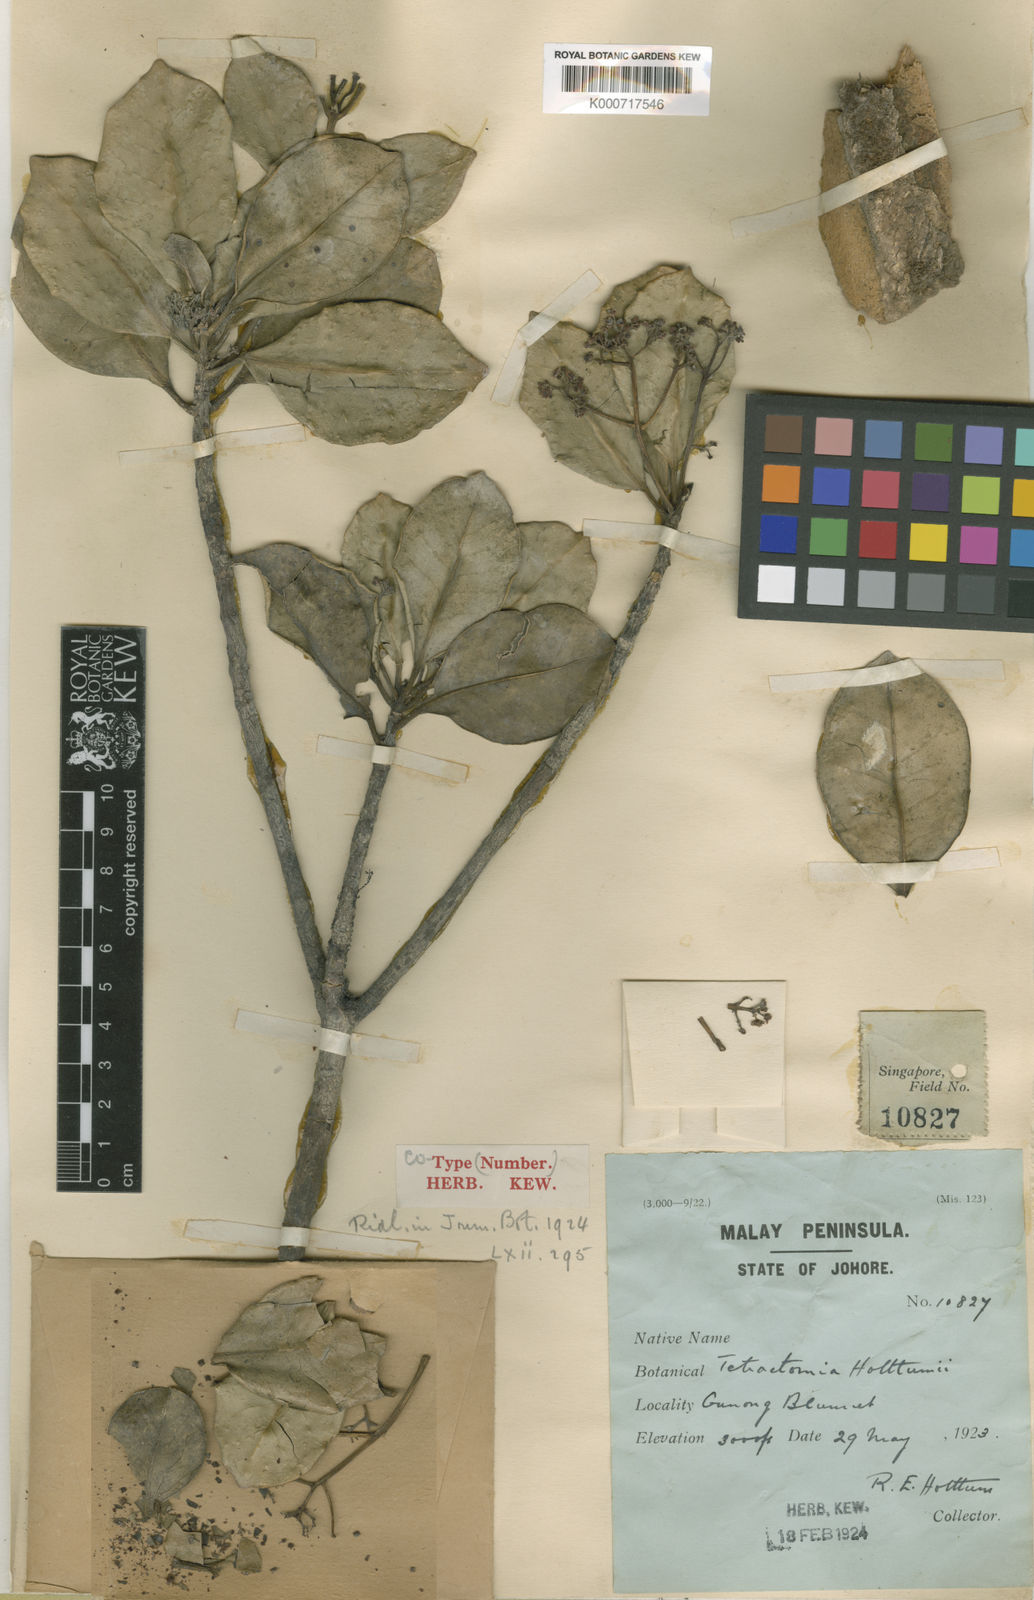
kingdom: Plantae
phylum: Tracheophyta
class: Magnoliopsida
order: Sapindales
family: Rutaceae
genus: Tetractomia
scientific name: Tetractomia tetrandra
